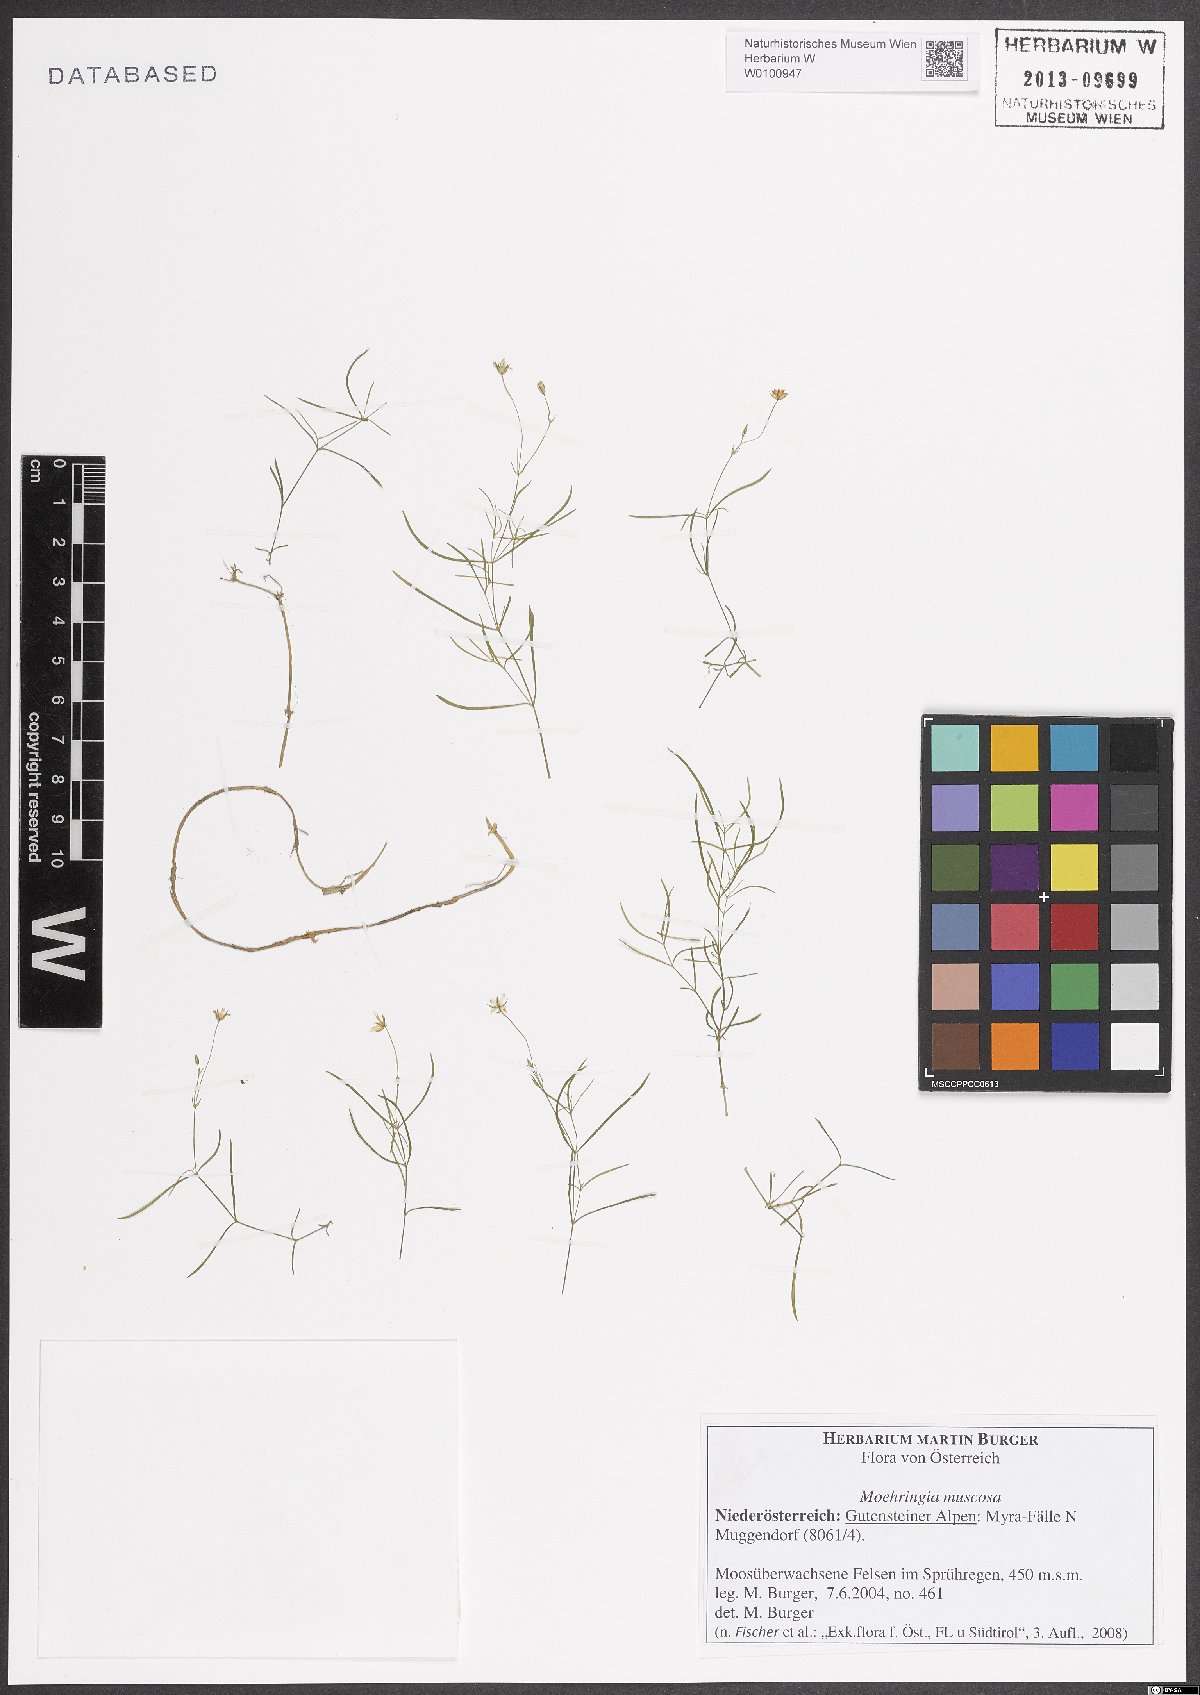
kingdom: Plantae
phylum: Tracheophyta
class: Magnoliopsida
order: Caryophyllales
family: Caryophyllaceae
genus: Moehringia
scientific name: Moehringia muscosa
